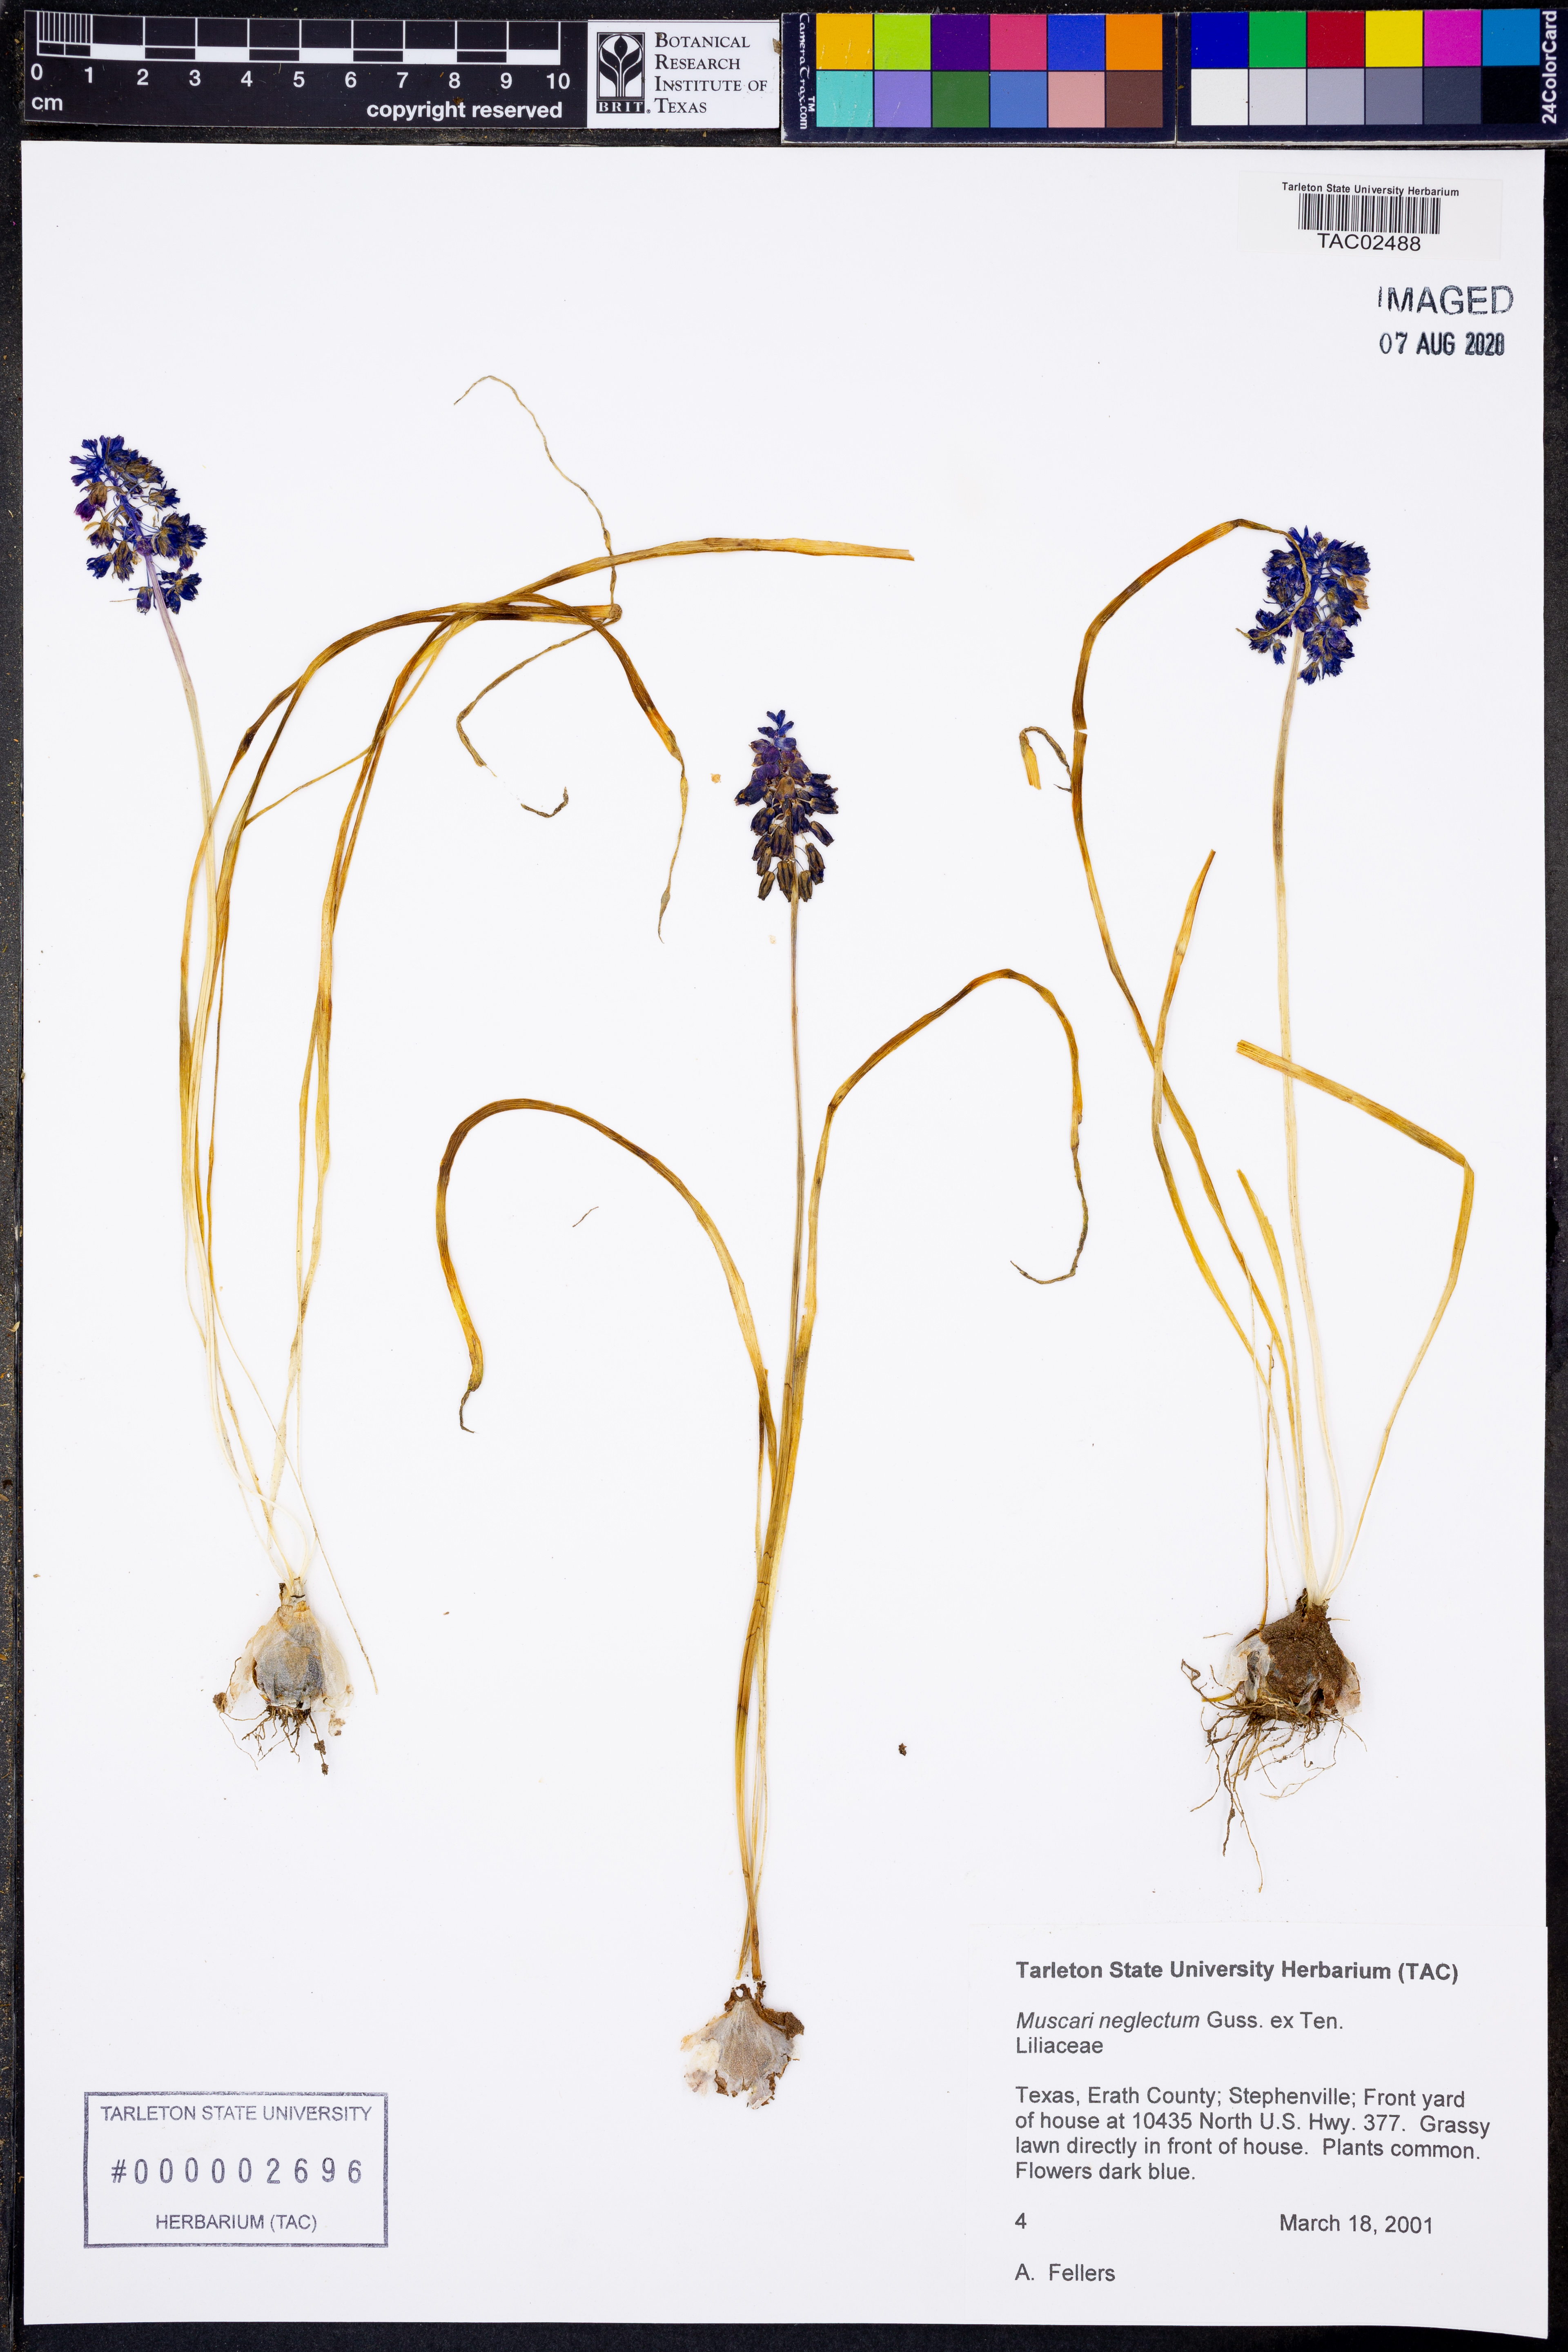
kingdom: Plantae
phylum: Tracheophyta
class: Liliopsida
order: Asparagales
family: Asparagaceae
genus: Muscari
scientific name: Muscari neglectum
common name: Grape-hyacinth
